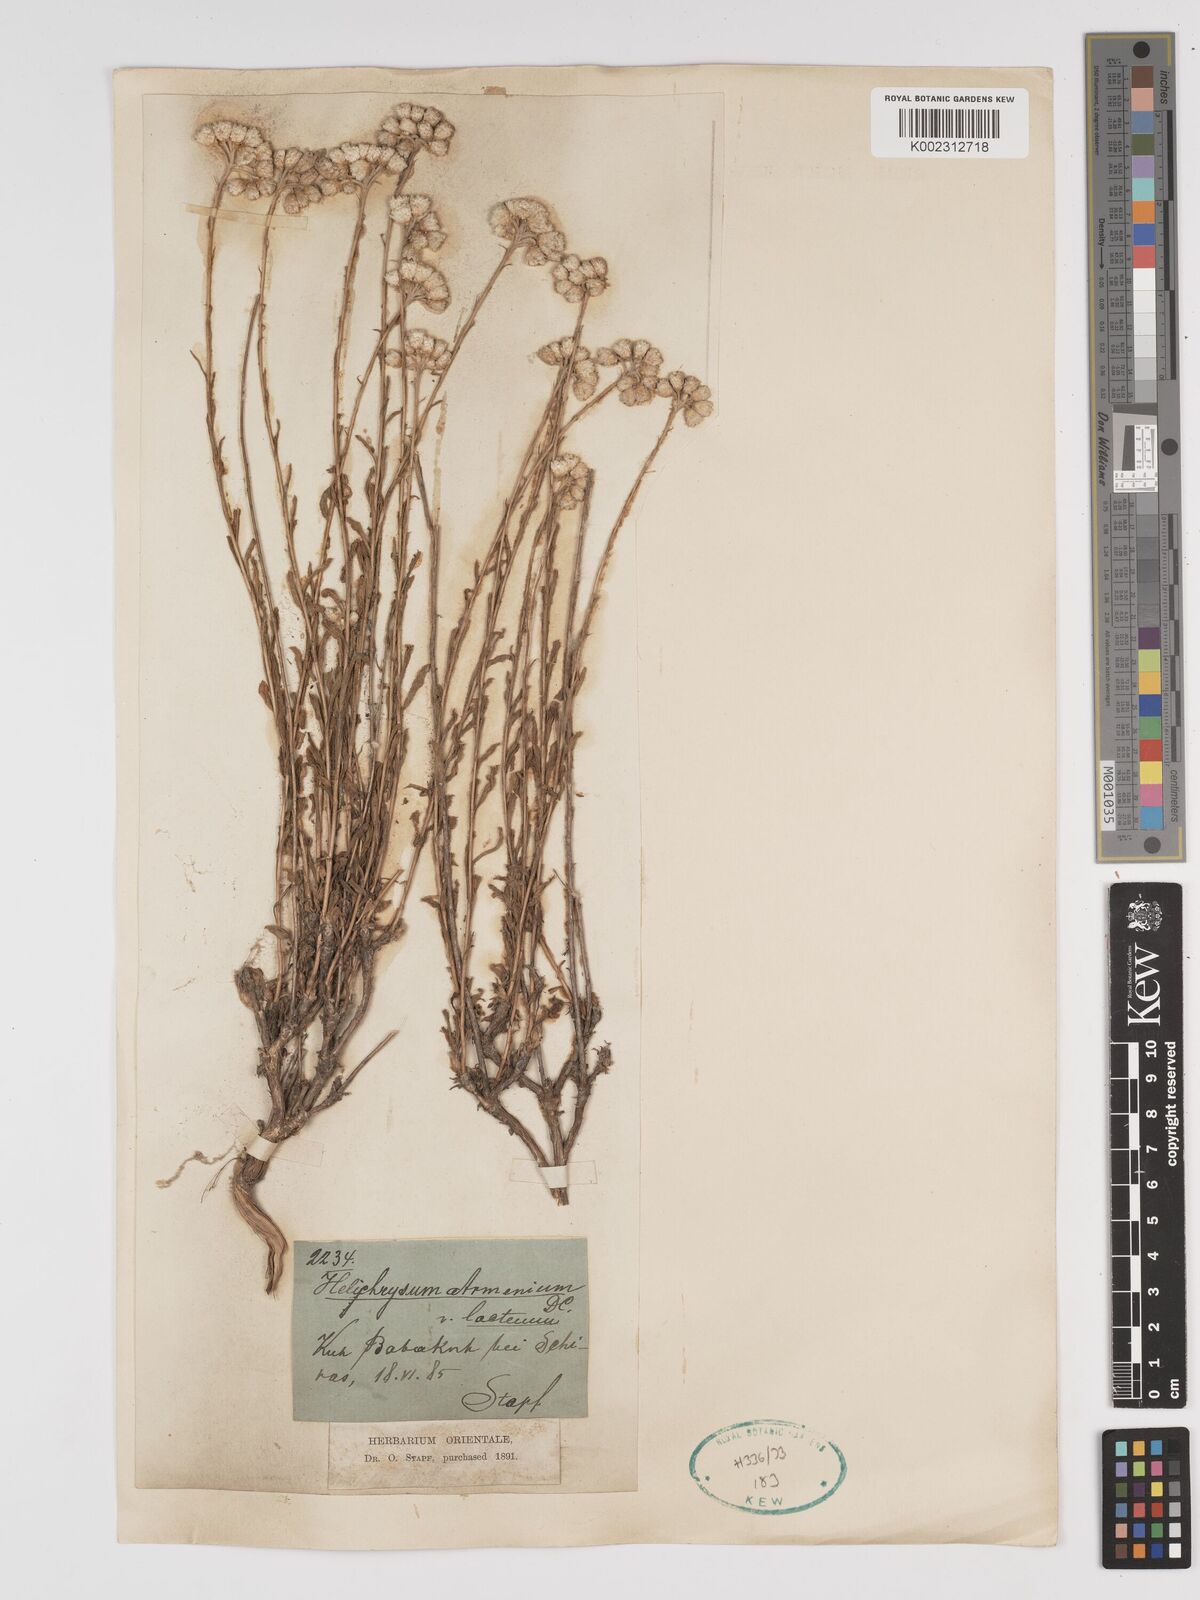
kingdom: Plantae
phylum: Tracheophyta
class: Magnoliopsida
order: Asterales
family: Asteraceae
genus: Helichrysum
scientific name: Helichrysum armenium
